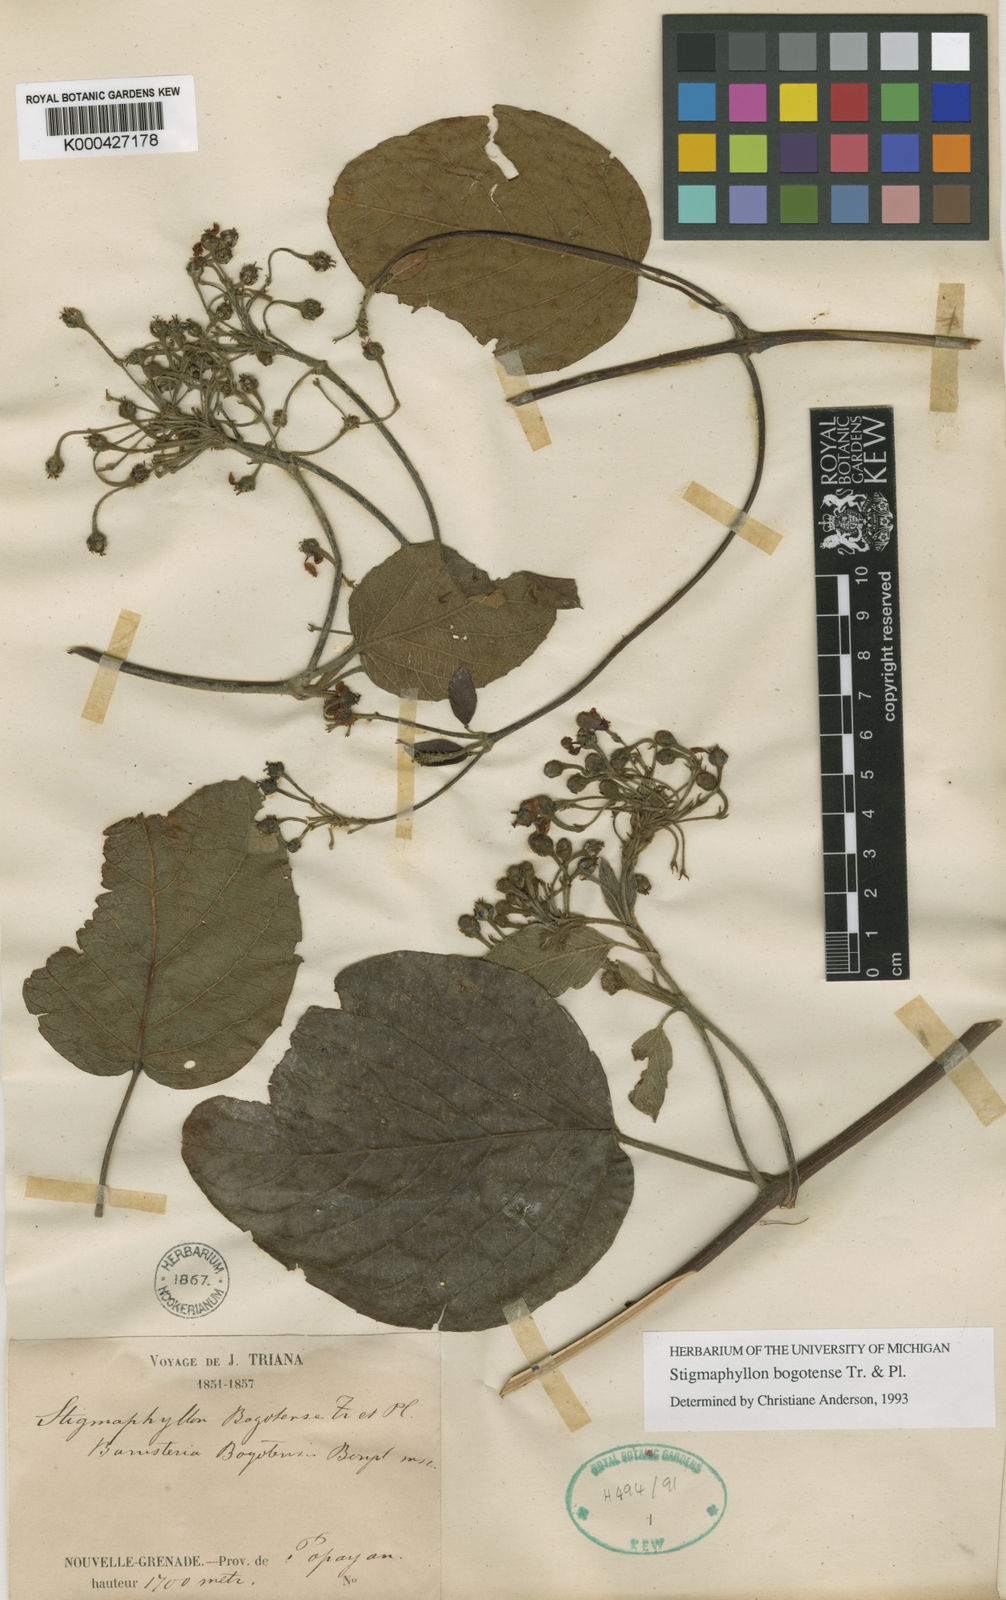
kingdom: Plantae
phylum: Tracheophyta
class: Magnoliopsida
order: Malpighiales
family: Malpighiaceae
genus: Stigmaphyllon
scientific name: Stigmaphyllon bogotense
